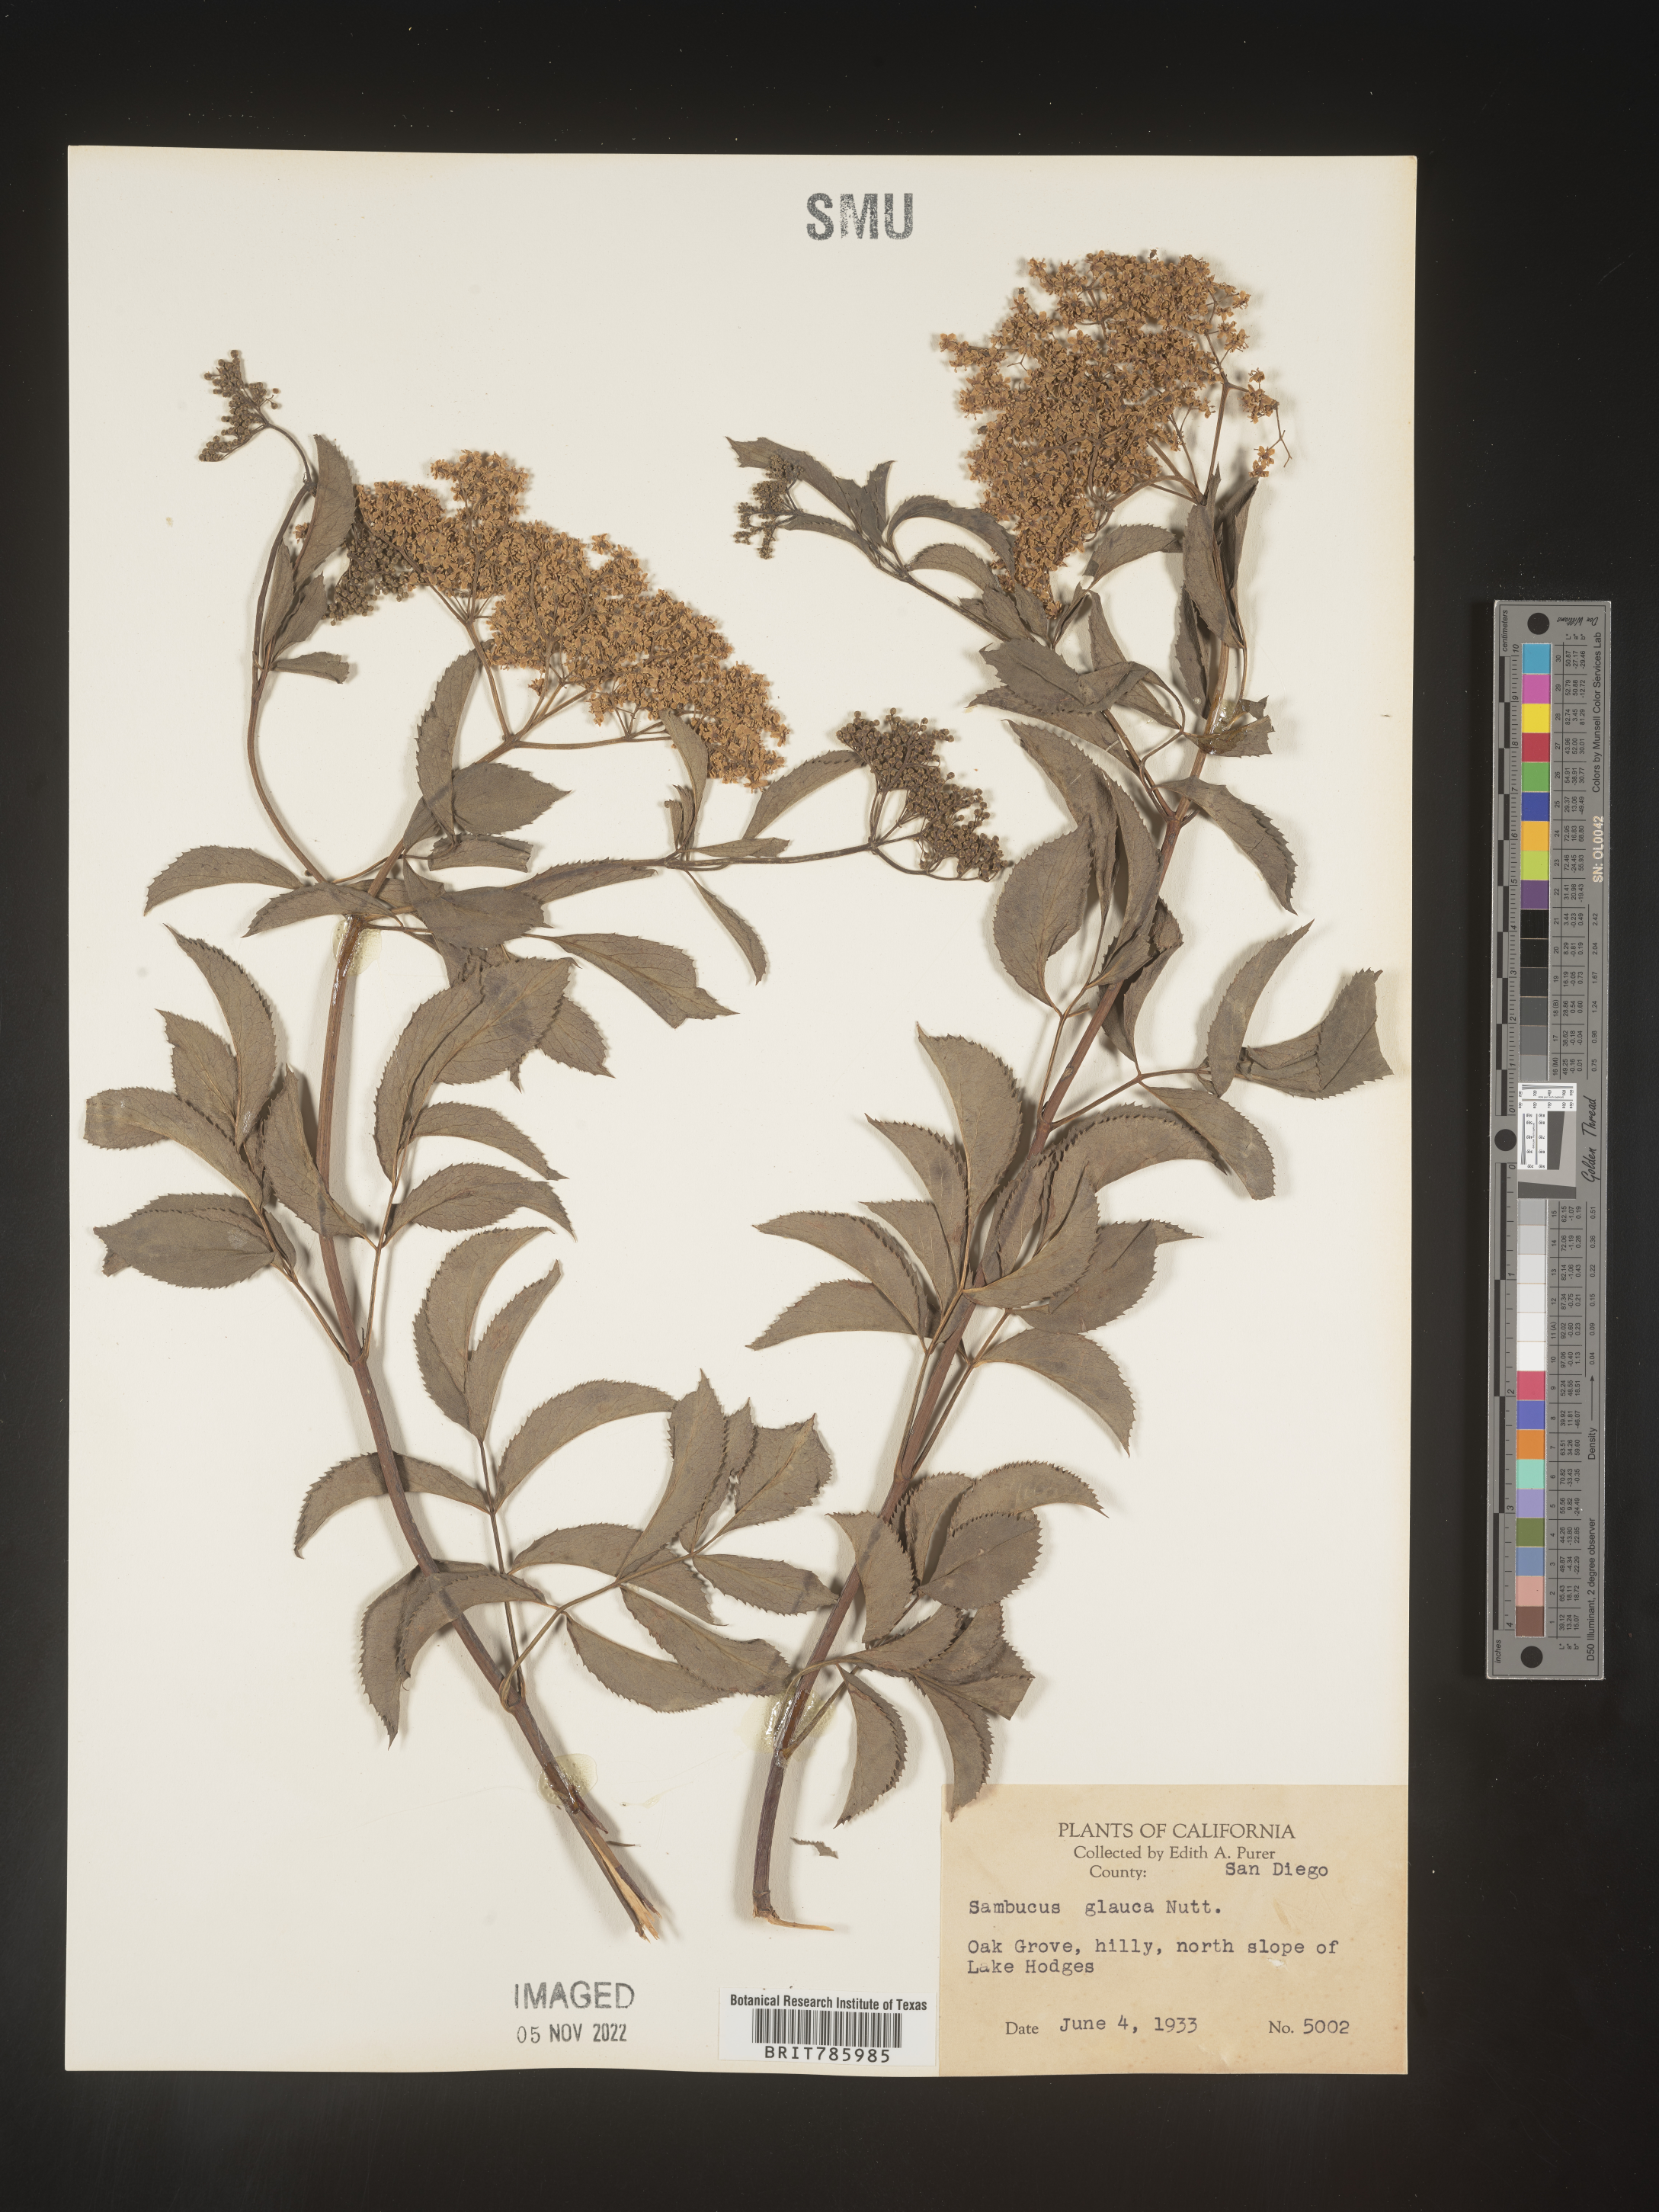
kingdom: Plantae
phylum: Tracheophyta
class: Magnoliopsida
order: Dipsacales
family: Viburnaceae
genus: Sambucus
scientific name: Sambucus
